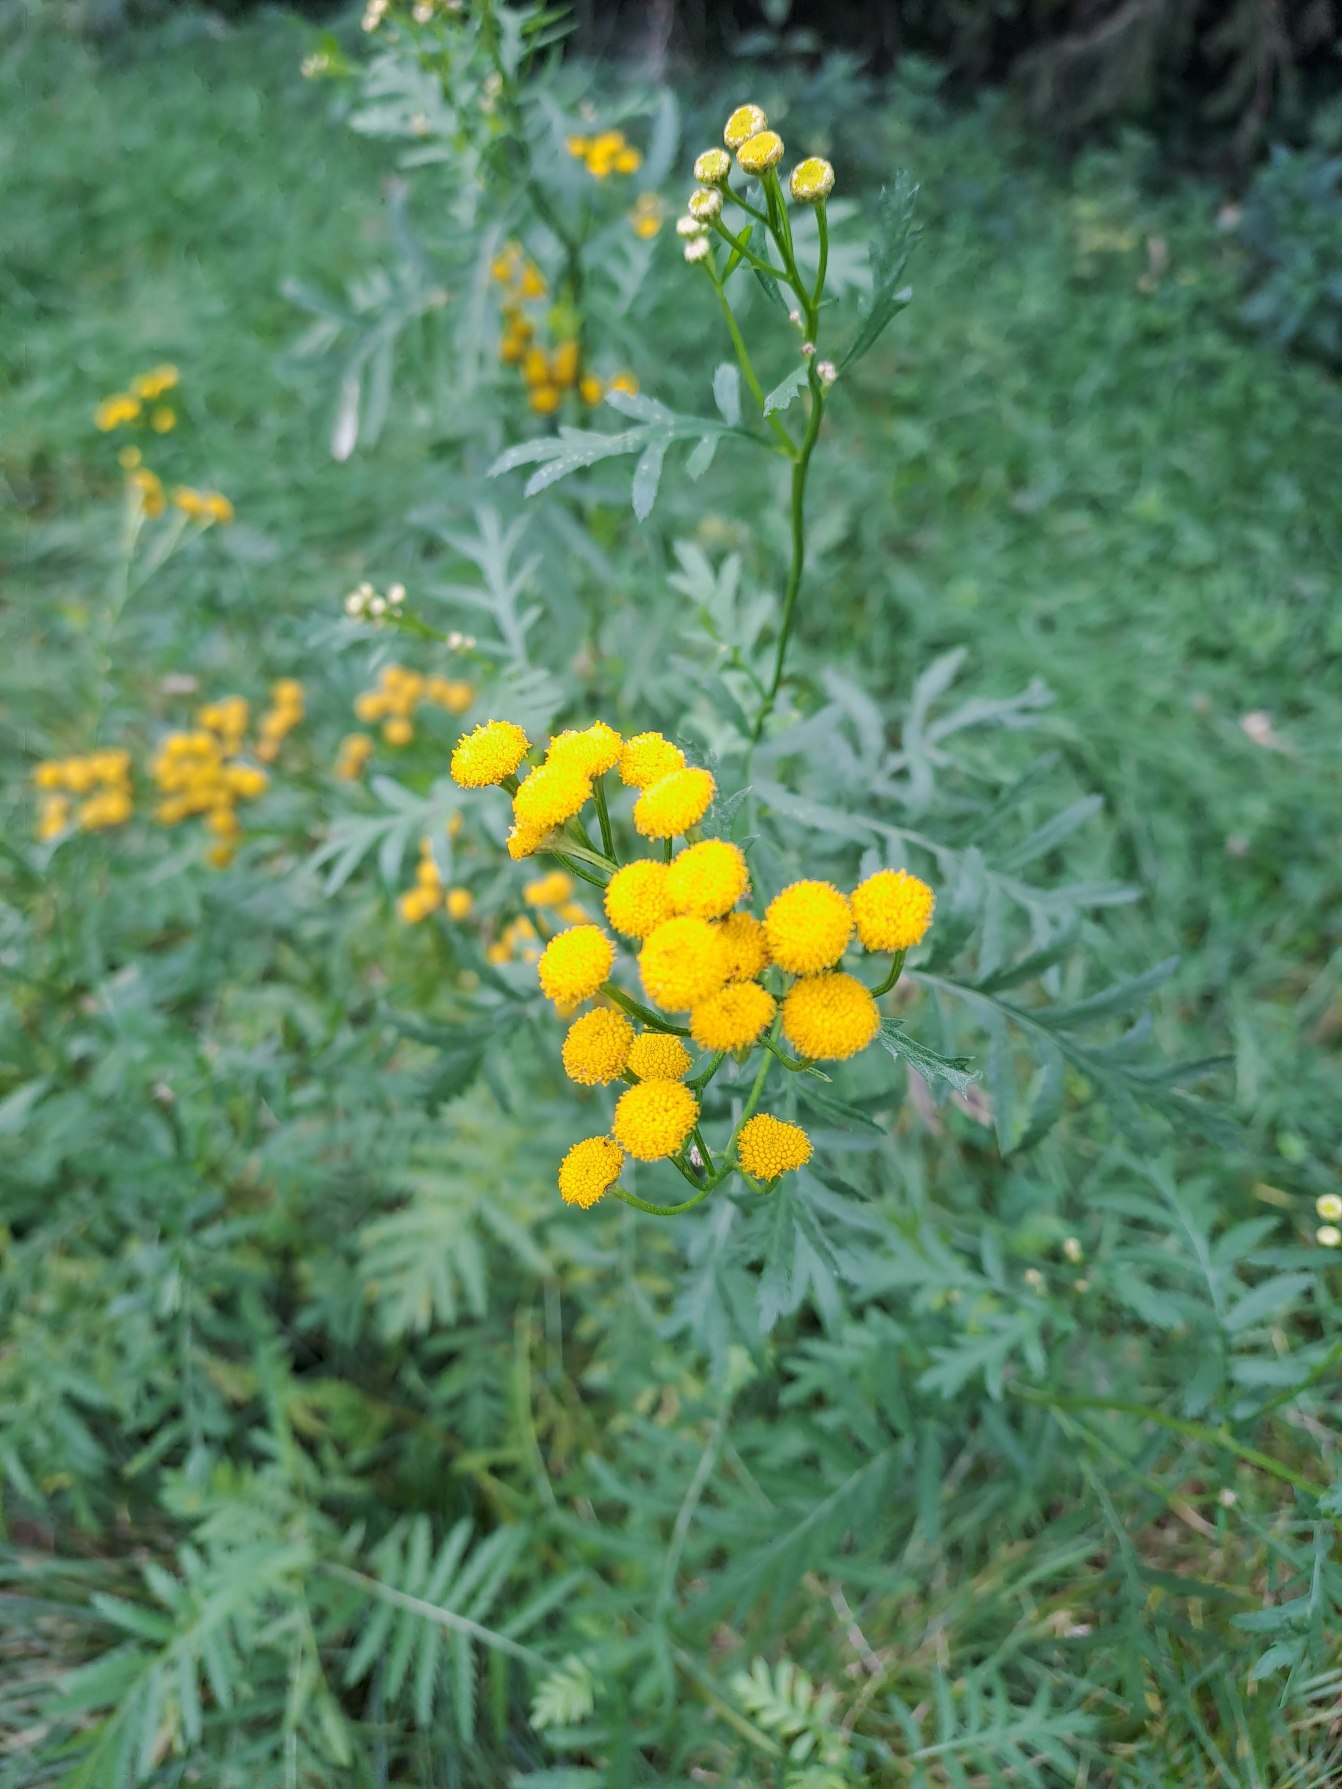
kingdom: Plantae
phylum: Tracheophyta
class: Magnoliopsida
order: Asterales
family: Asteraceae
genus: Tanacetum
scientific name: Tanacetum vulgare
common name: Rejnfan
